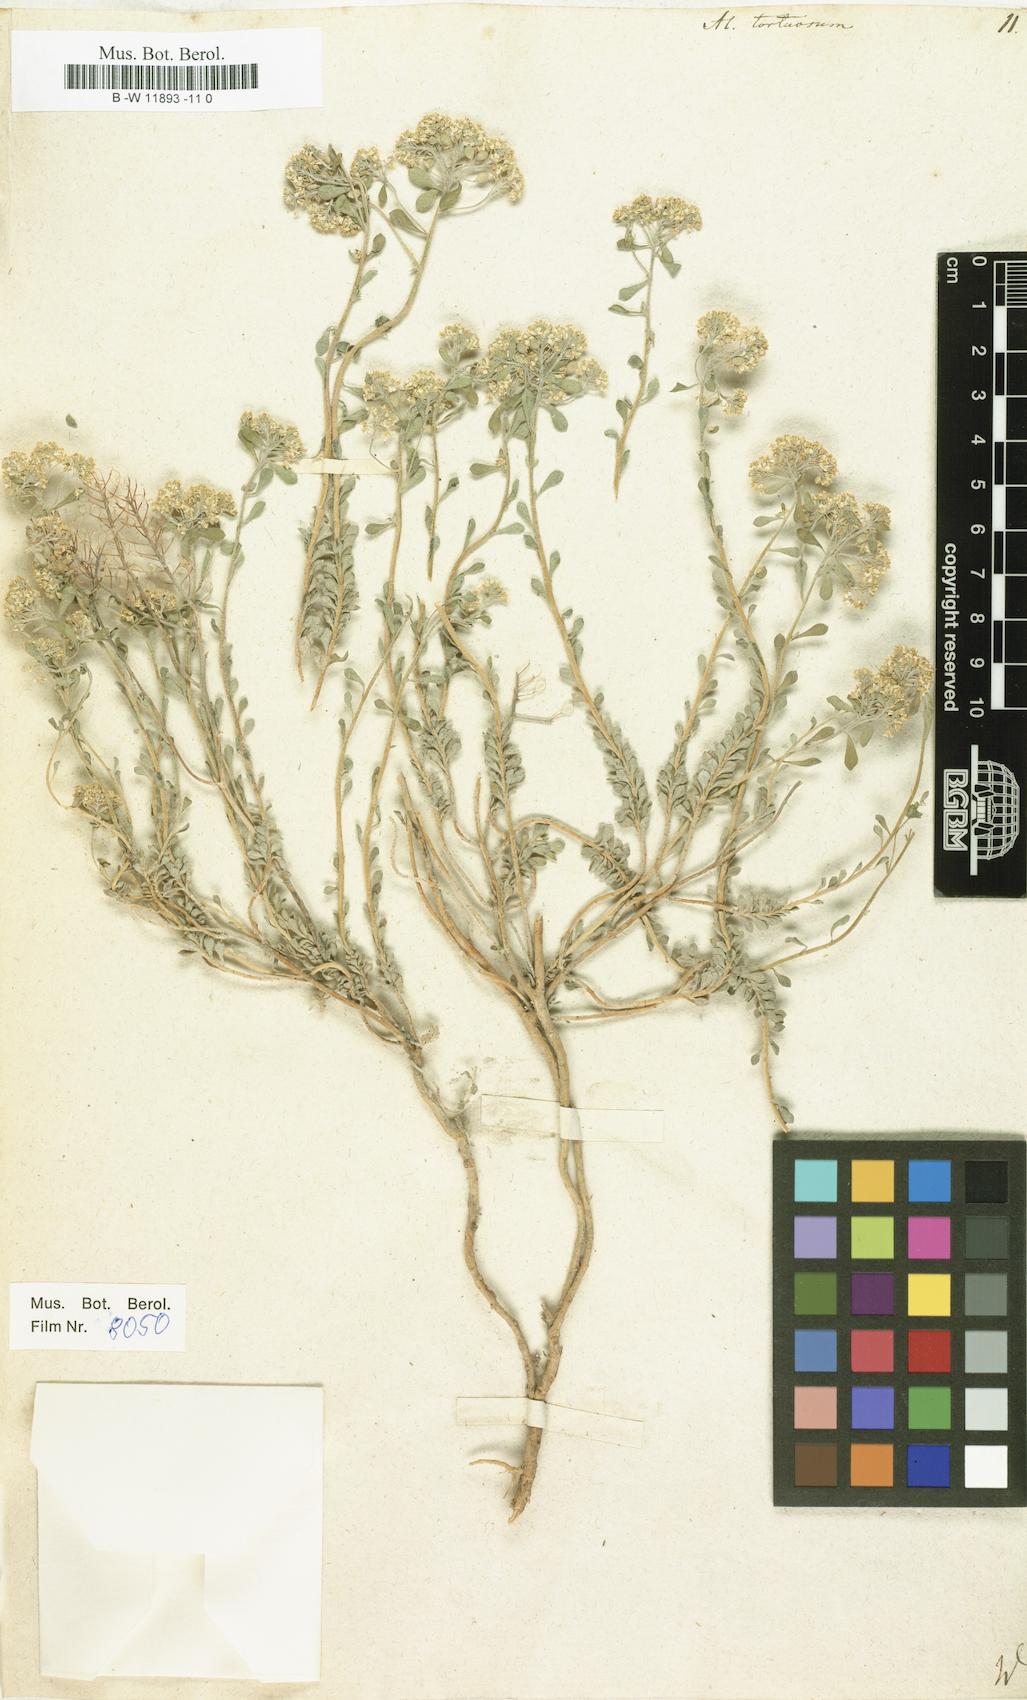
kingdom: Plantae
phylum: Tracheophyta
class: Magnoliopsida
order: Brassicales
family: Brassicaceae
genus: Odontarrhena
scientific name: Odontarrhena tortuosa
